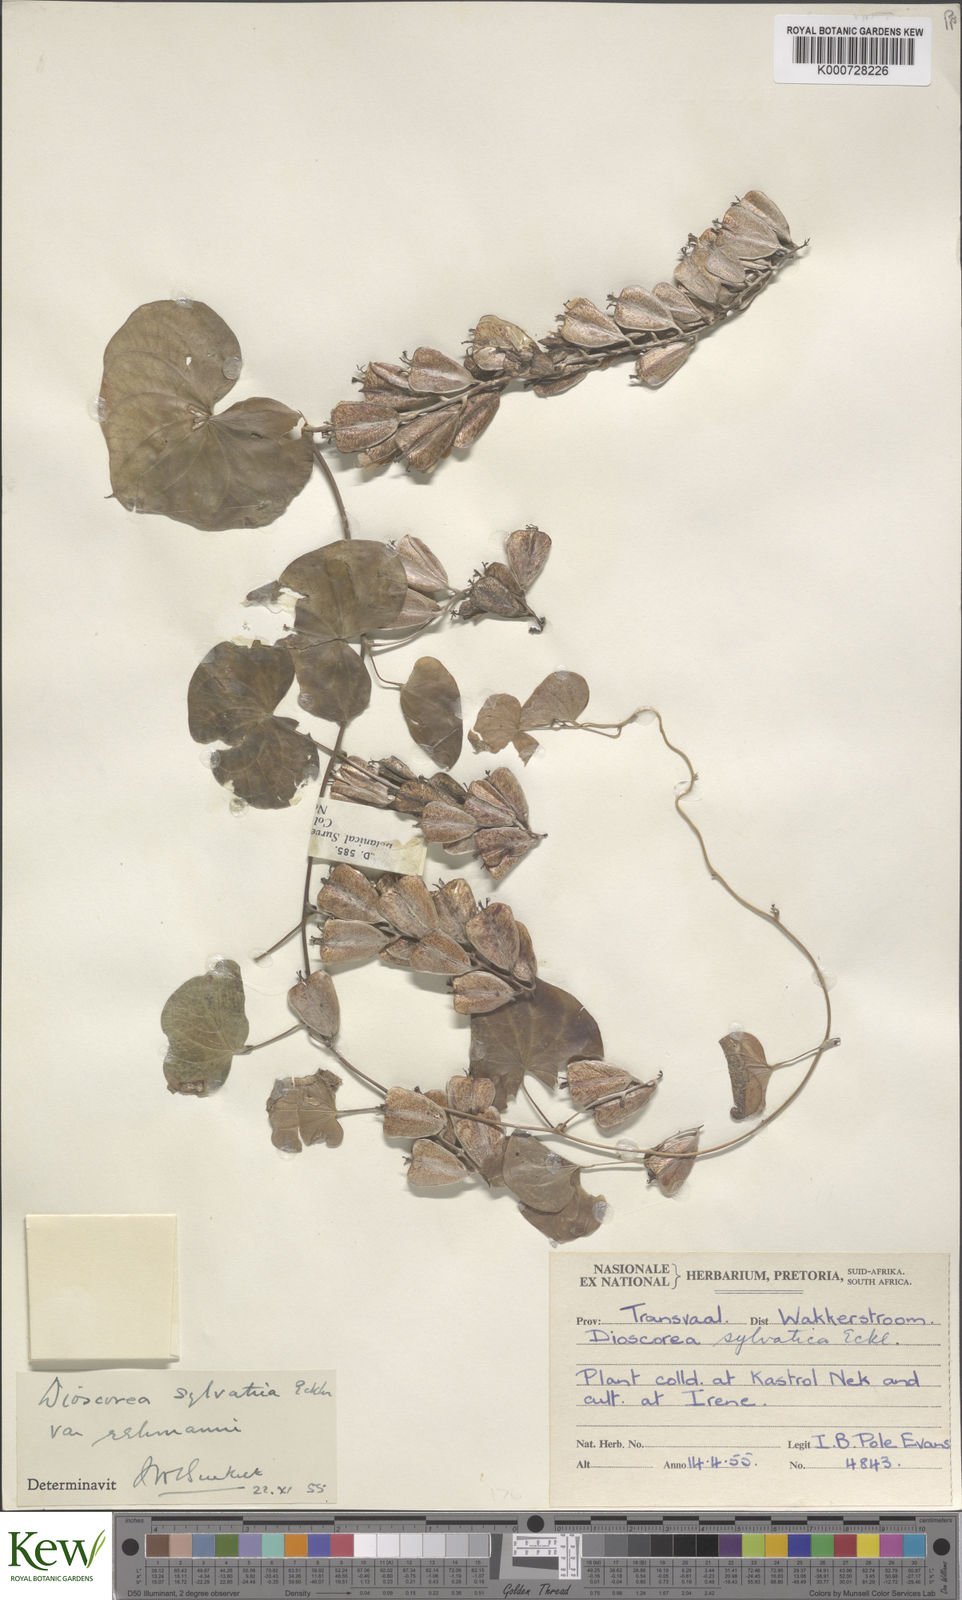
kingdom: Plantae
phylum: Tracheophyta
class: Liliopsida
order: Dioscoreales
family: Dioscoreaceae
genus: Dioscorea
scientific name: Dioscorea sylvatica
